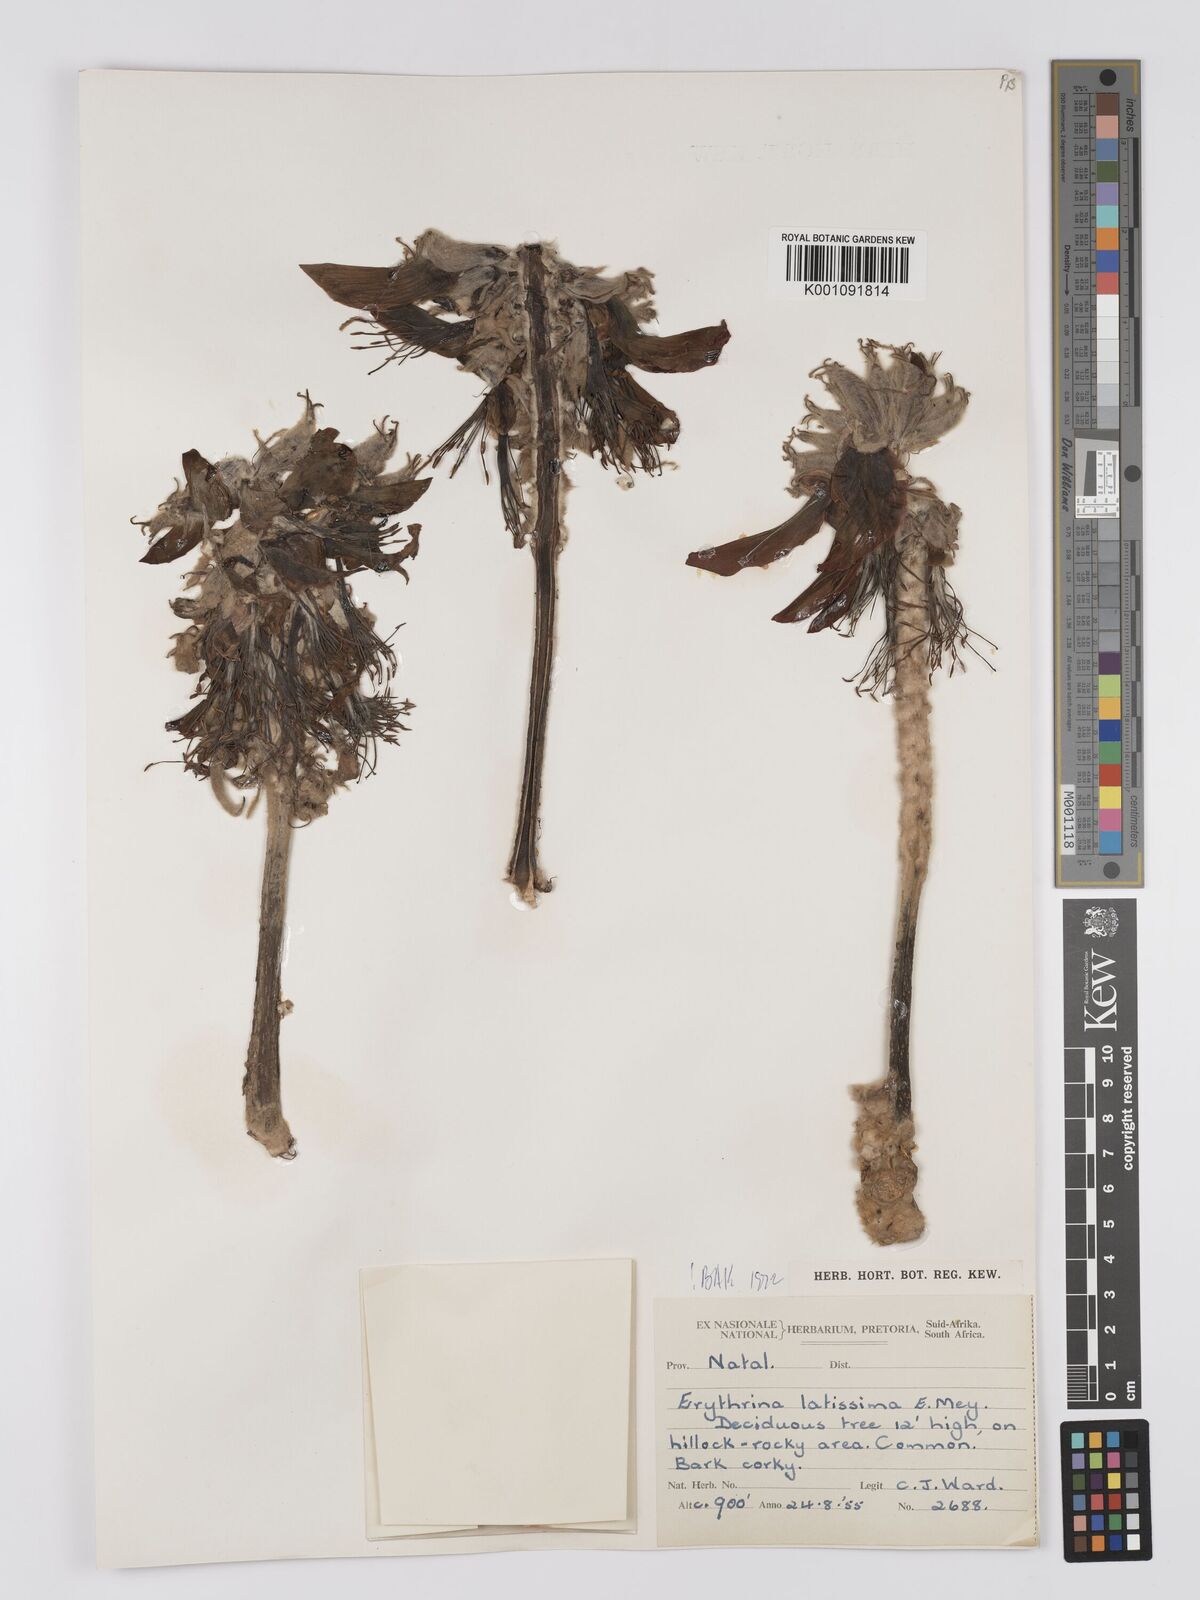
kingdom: Plantae
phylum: Tracheophyta
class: Magnoliopsida
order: Fabales
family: Fabaceae
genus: Erythrina
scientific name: Erythrina latissima
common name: Broad-leaved coral tree
